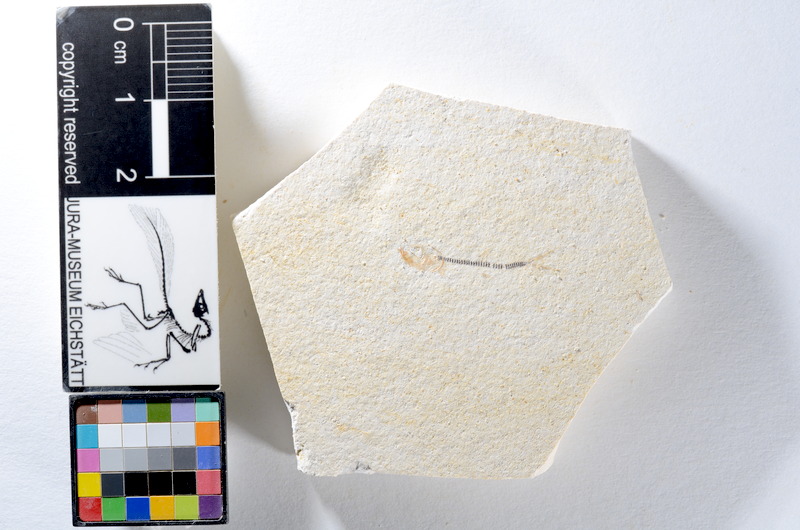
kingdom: Animalia
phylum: Chordata
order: Salmoniformes
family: Orthogonikleithridae
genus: Orthogonikleithrus
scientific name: Orthogonikleithrus hoelli
